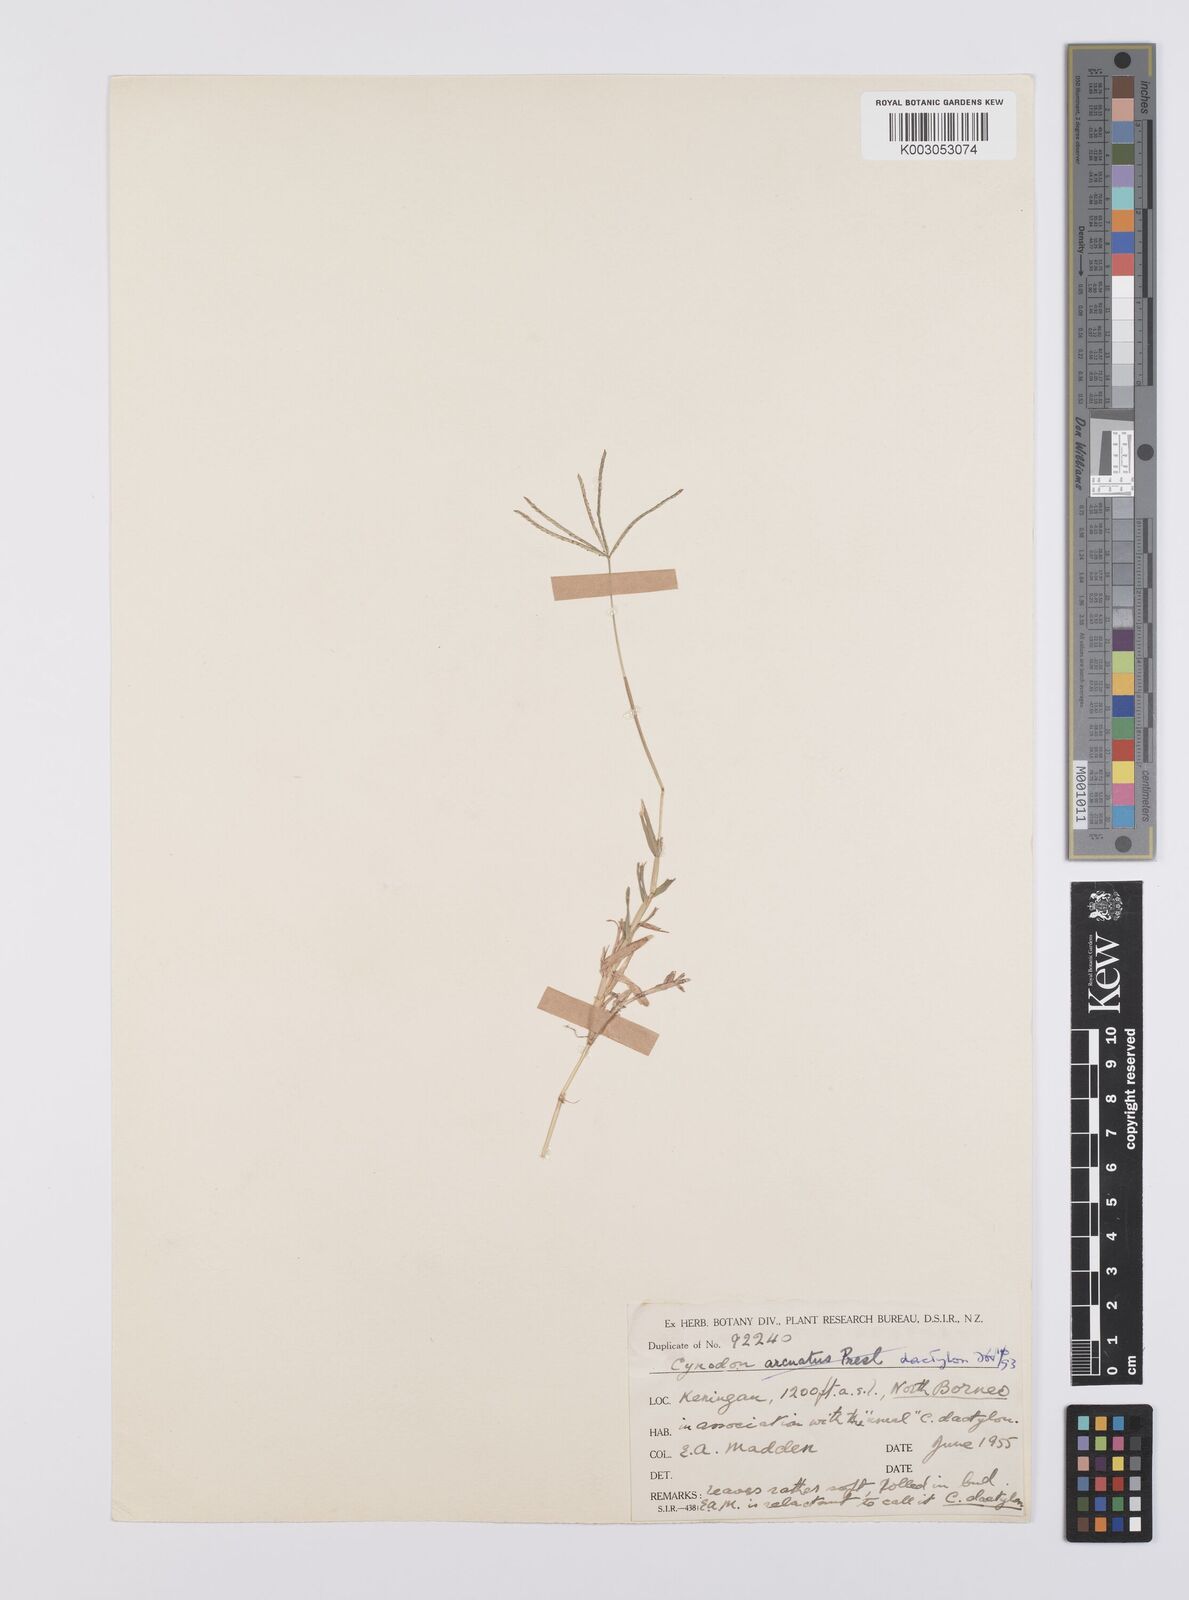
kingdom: Plantae
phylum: Tracheophyta
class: Liliopsida
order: Poales
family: Poaceae
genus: Cynodon
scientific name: Cynodon dactylon
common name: Bermuda grass
